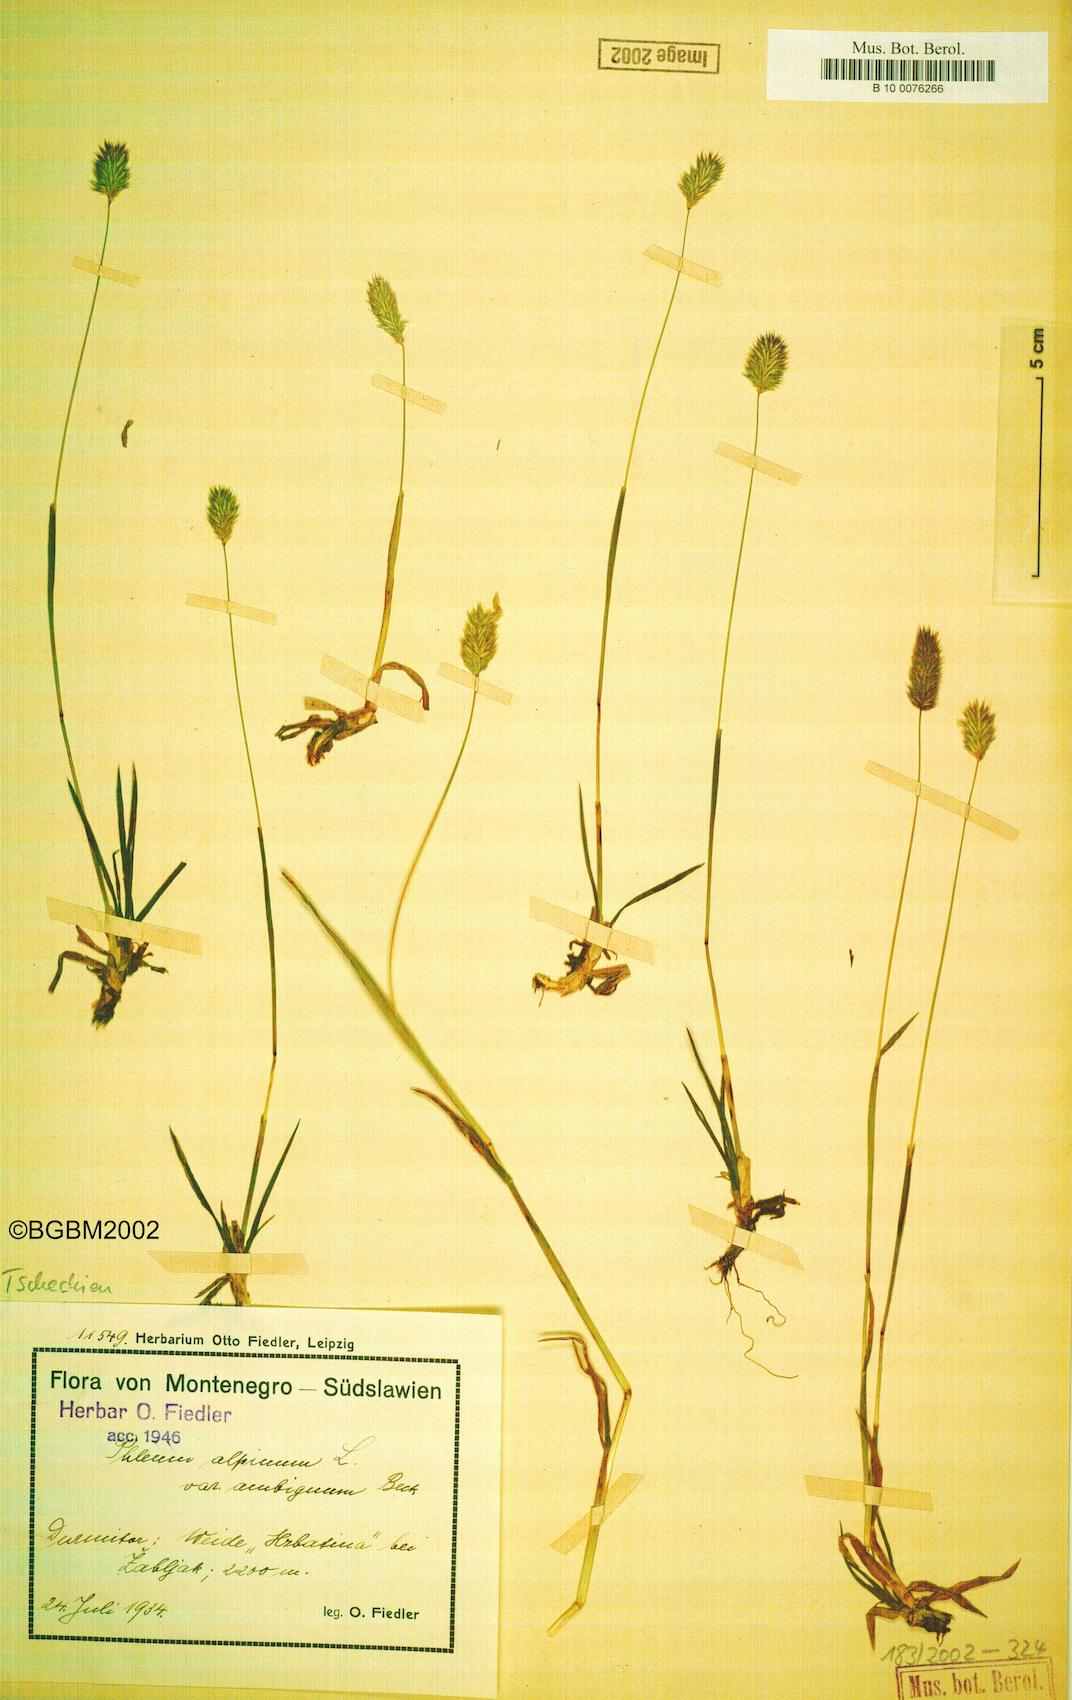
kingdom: Plantae
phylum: Tracheophyta
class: Liliopsida
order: Poales
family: Poaceae
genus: Phleum
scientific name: Phleum alpinum
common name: Alpine cat's-tail
